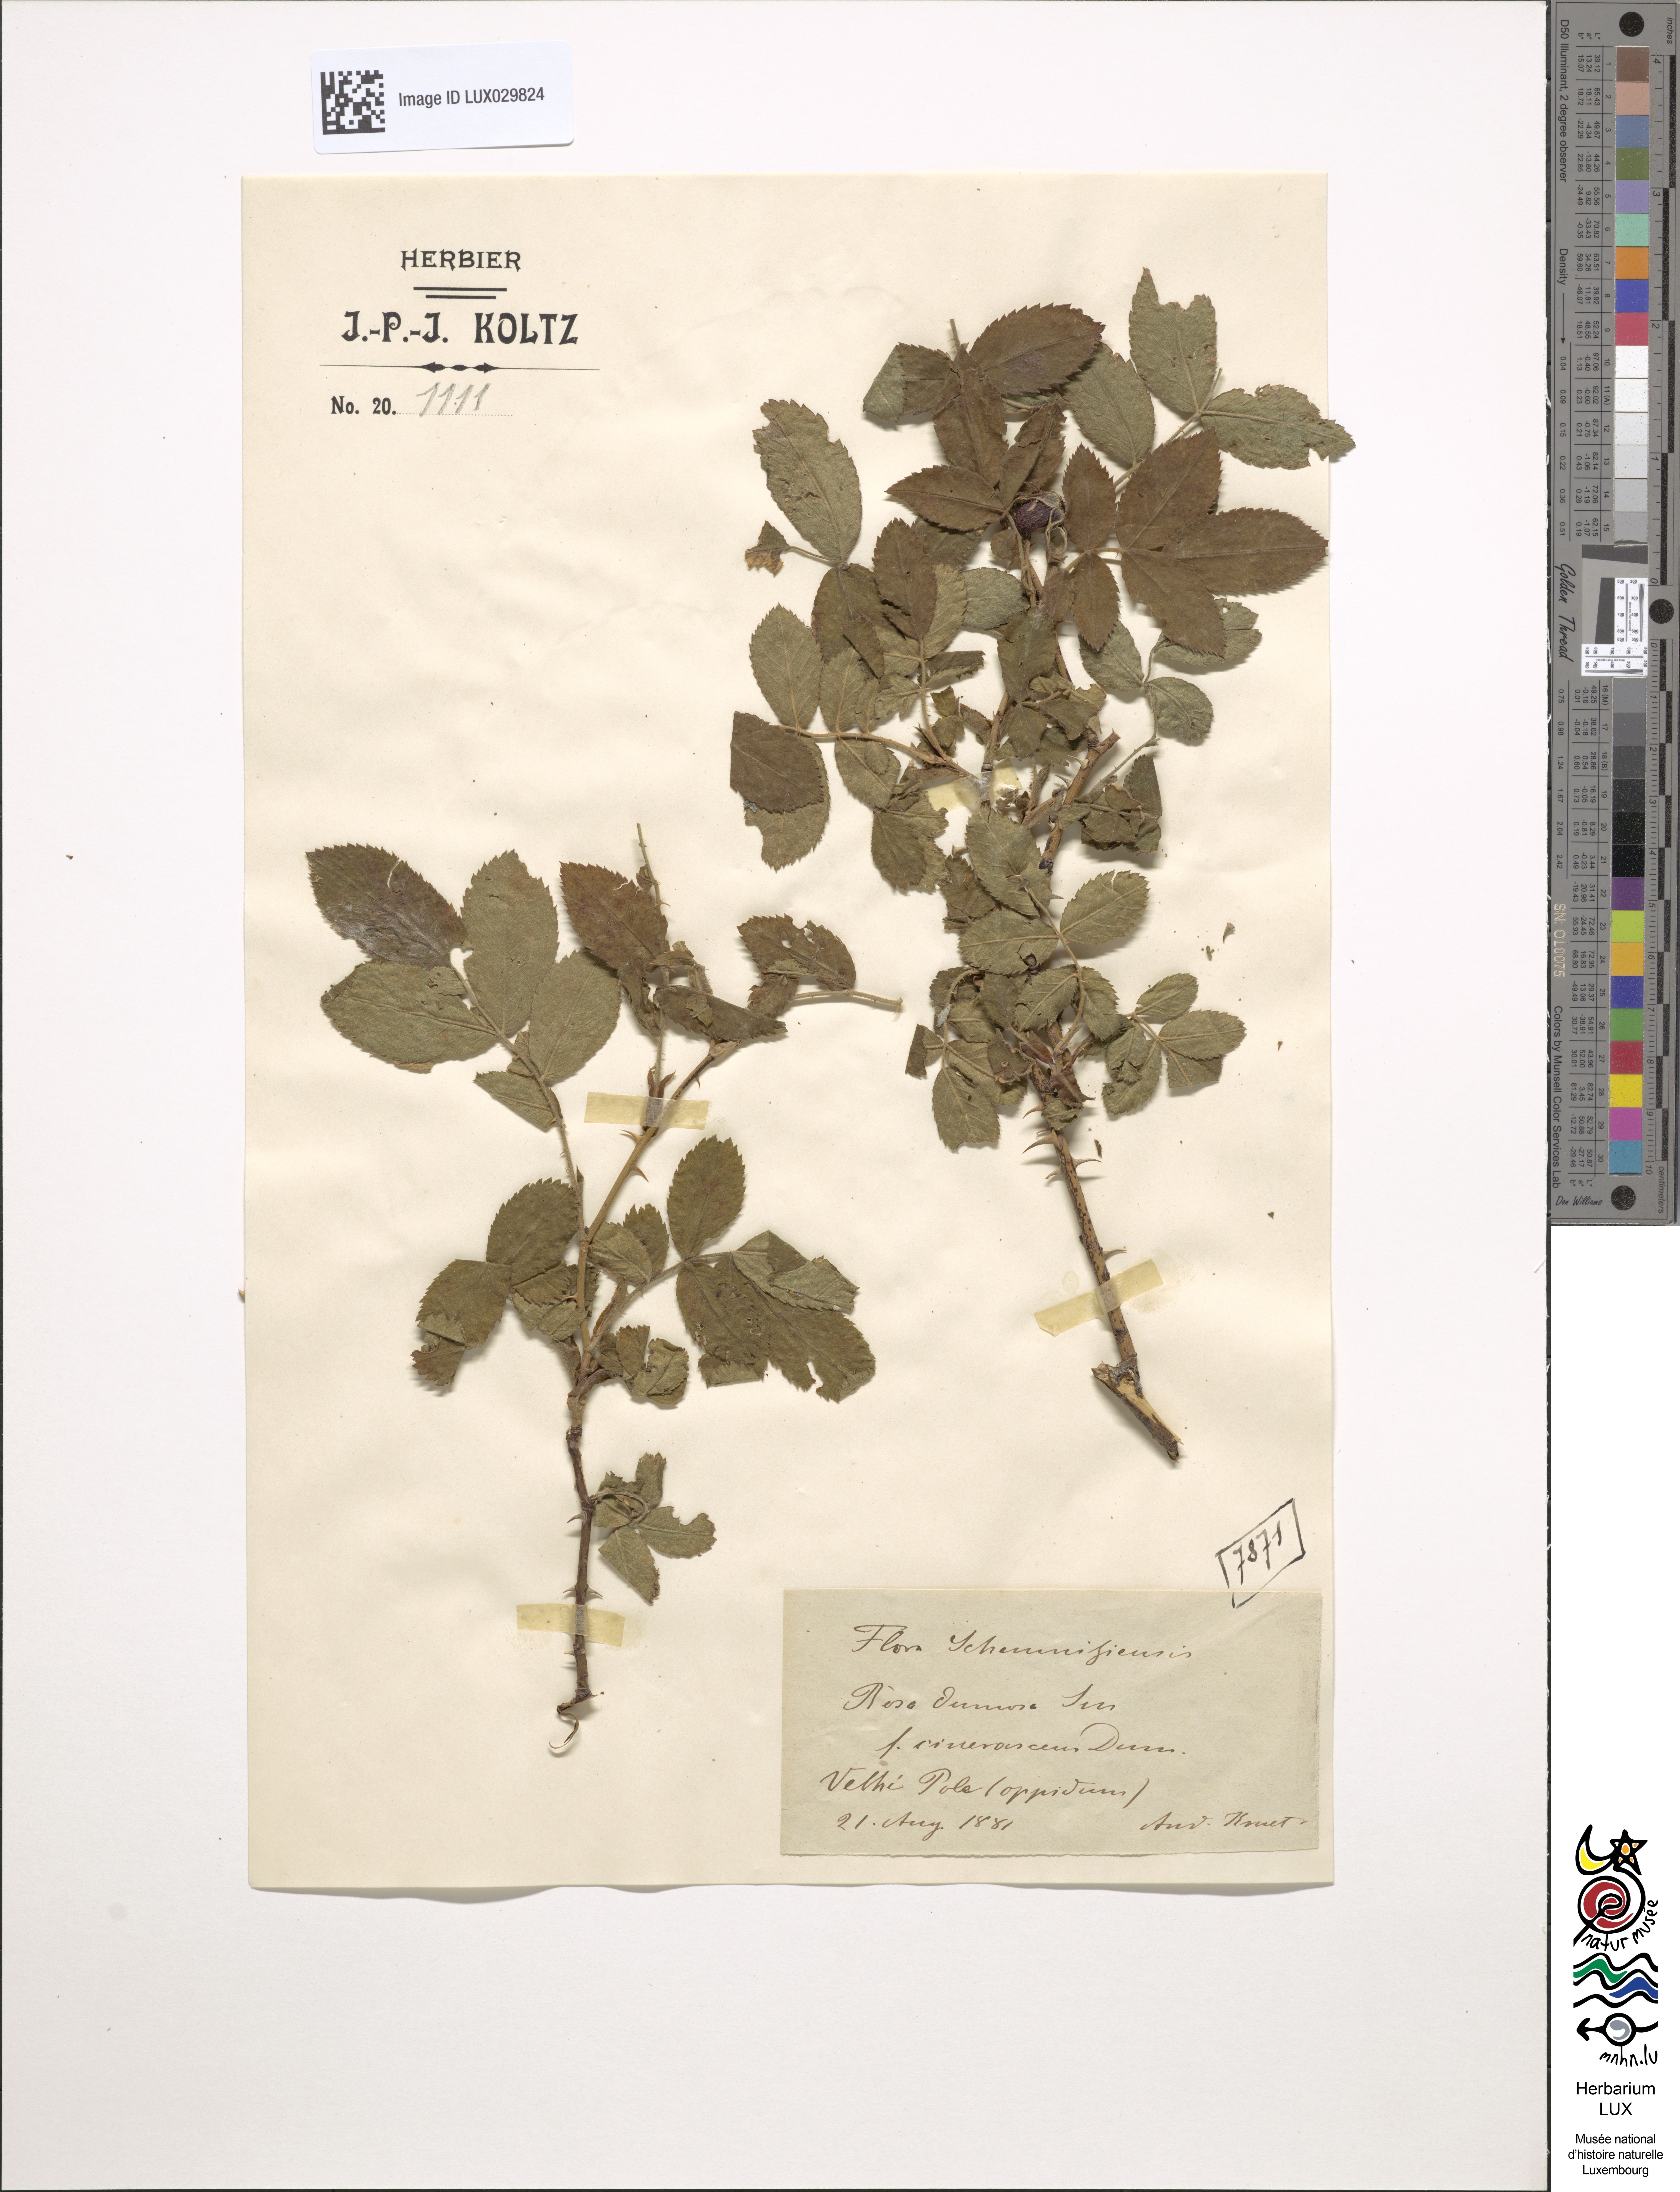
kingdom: Plantae
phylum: Tracheophyta
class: Magnoliopsida
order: Rosales
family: Rosaceae
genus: Rosa
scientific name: Rosa
